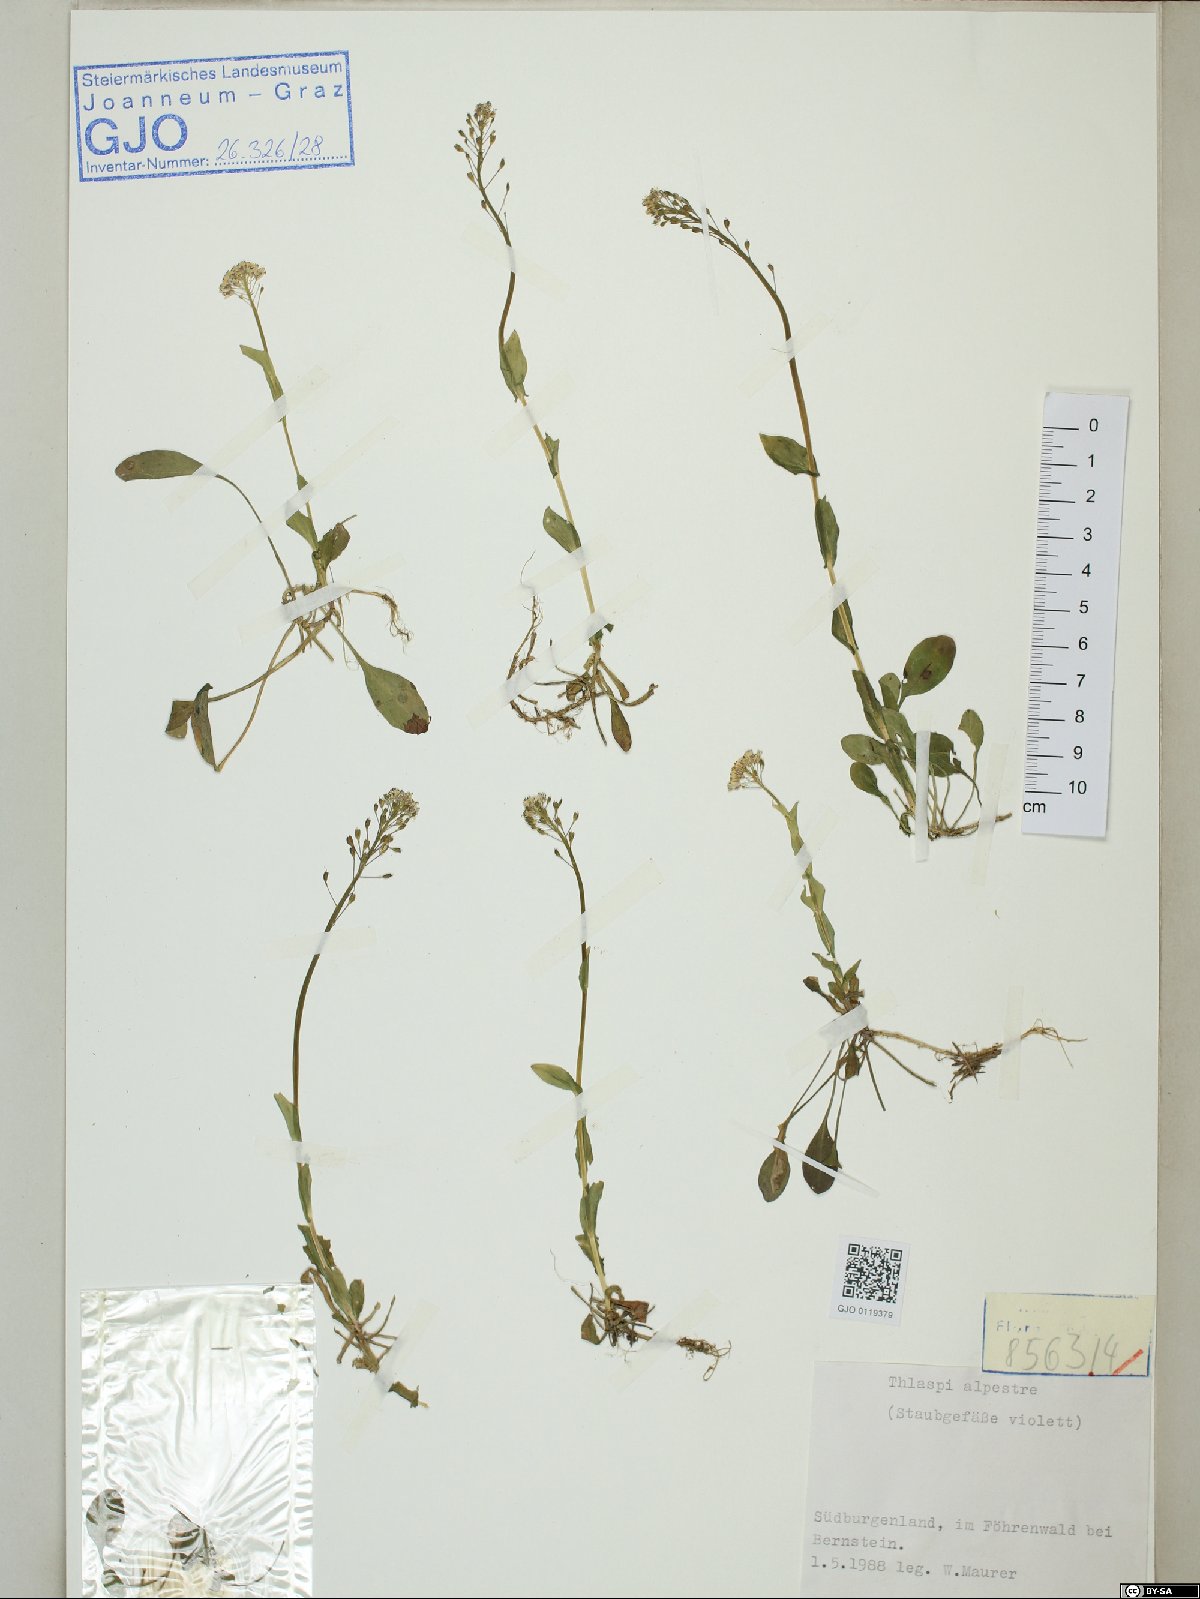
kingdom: Plantae
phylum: Tracheophyta
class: Magnoliopsida
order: Brassicales
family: Brassicaceae
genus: Noccaea
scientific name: Noccaea alpestris
